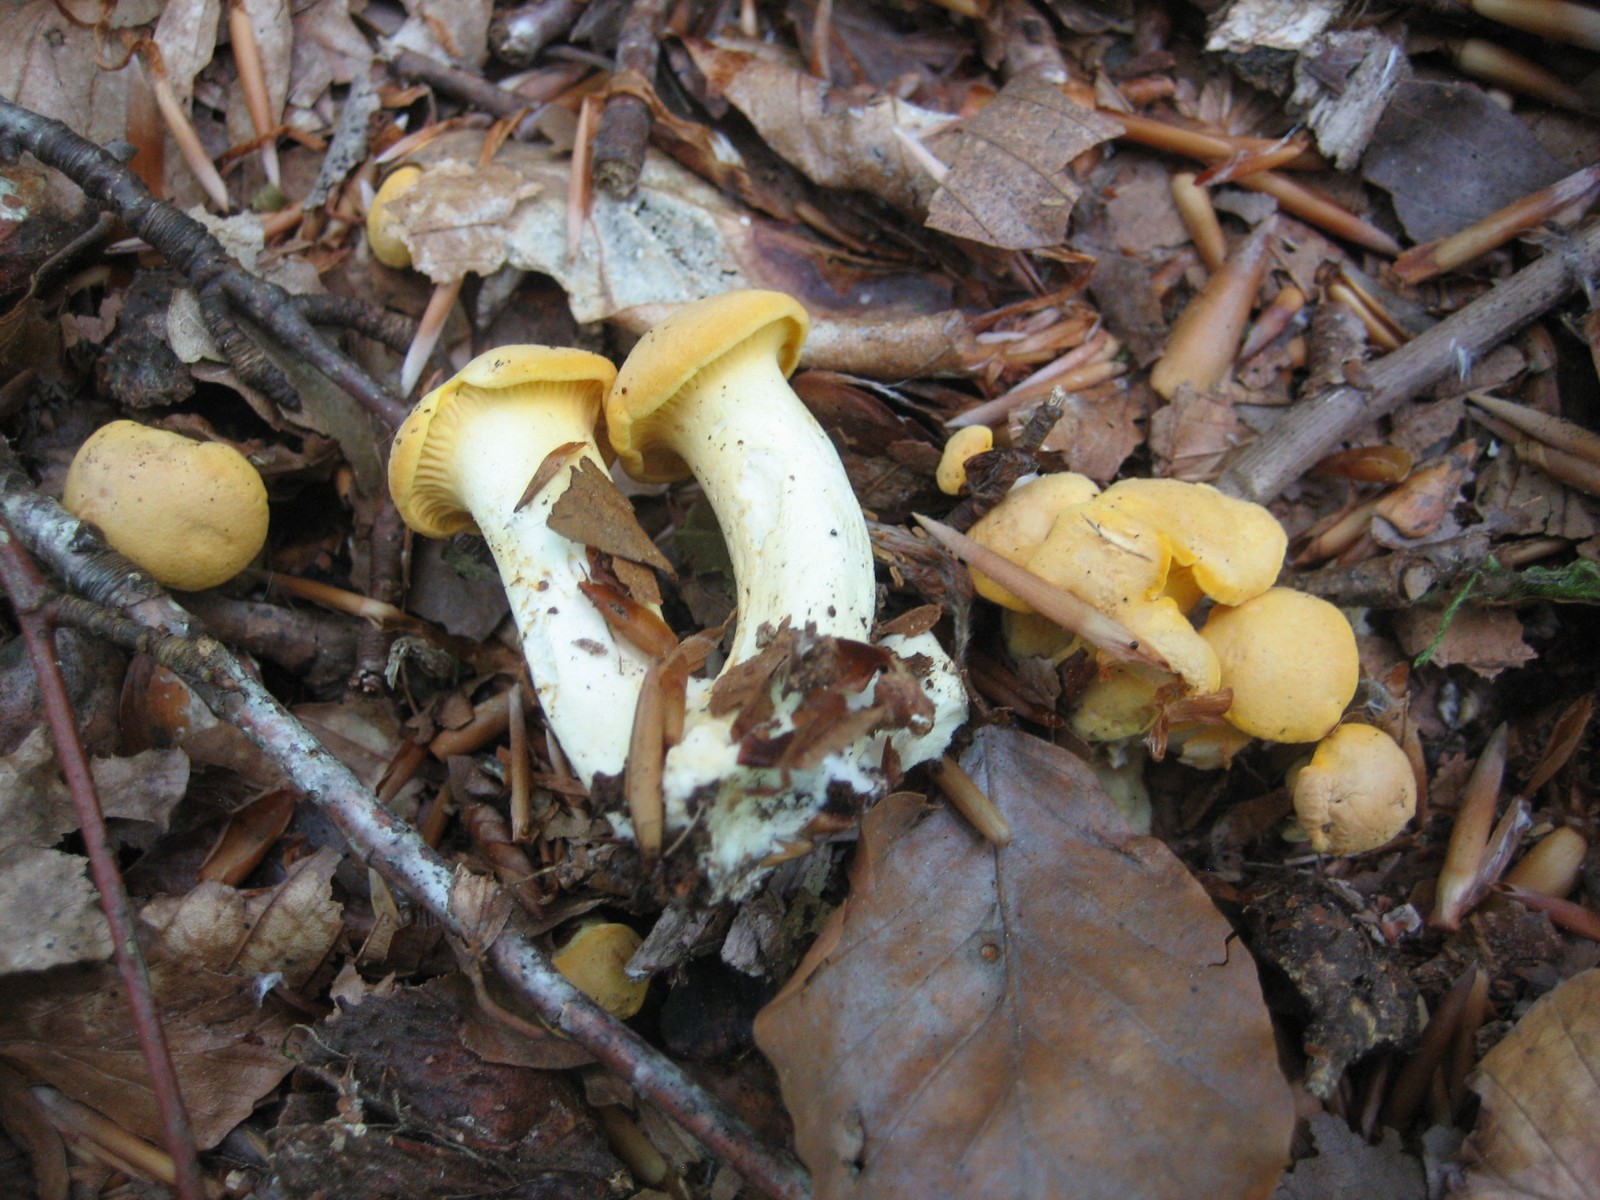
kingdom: Fungi
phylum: Basidiomycota
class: Agaricomycetes
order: Cantharellales
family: Hydnaceae
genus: Cantharellus
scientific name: Cantharellus pallens
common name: bleg kantarel
